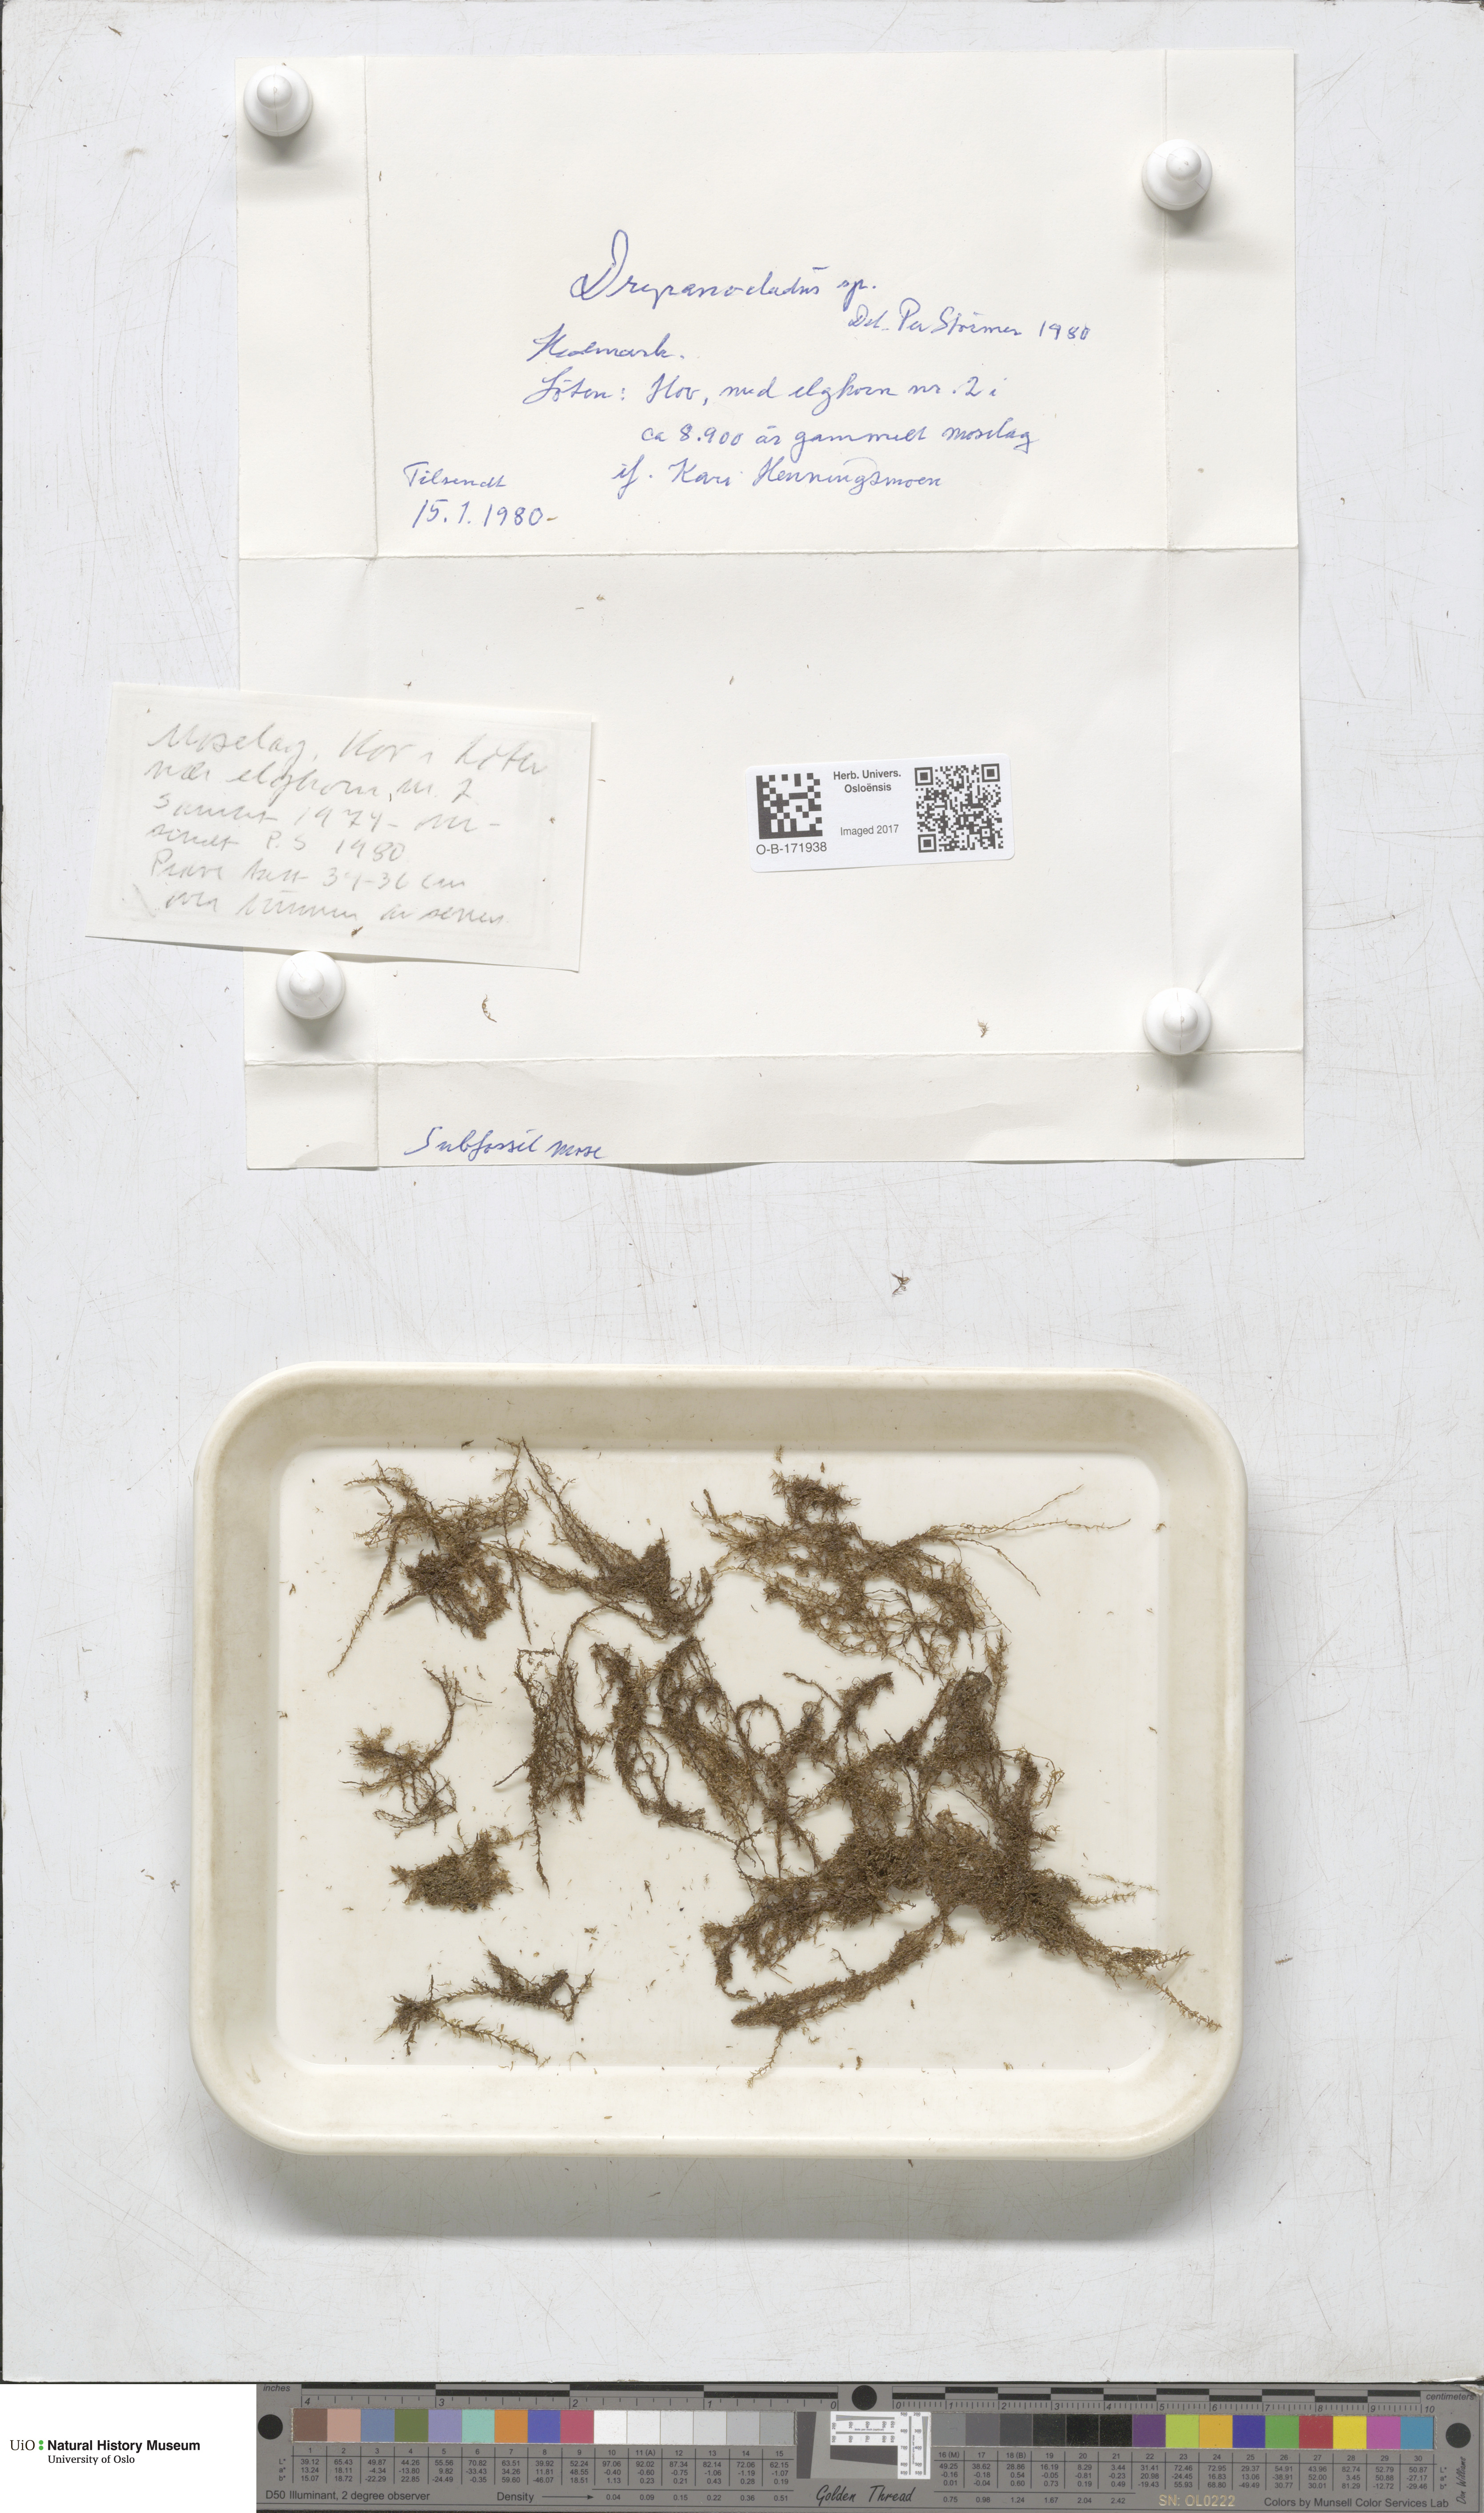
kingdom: Plantae
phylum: Bryophyta
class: Bryopsida
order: Hypnales
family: Amblystegiaceae
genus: Drepanocladus
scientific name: Drepanocladus
